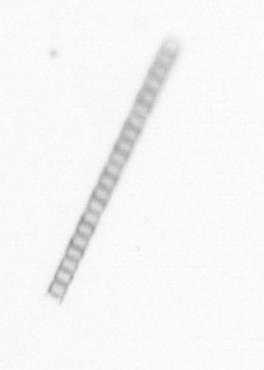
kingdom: Chromista
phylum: Ochrophyta
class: Bacillariophyceae
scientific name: Bacillariophyceae
